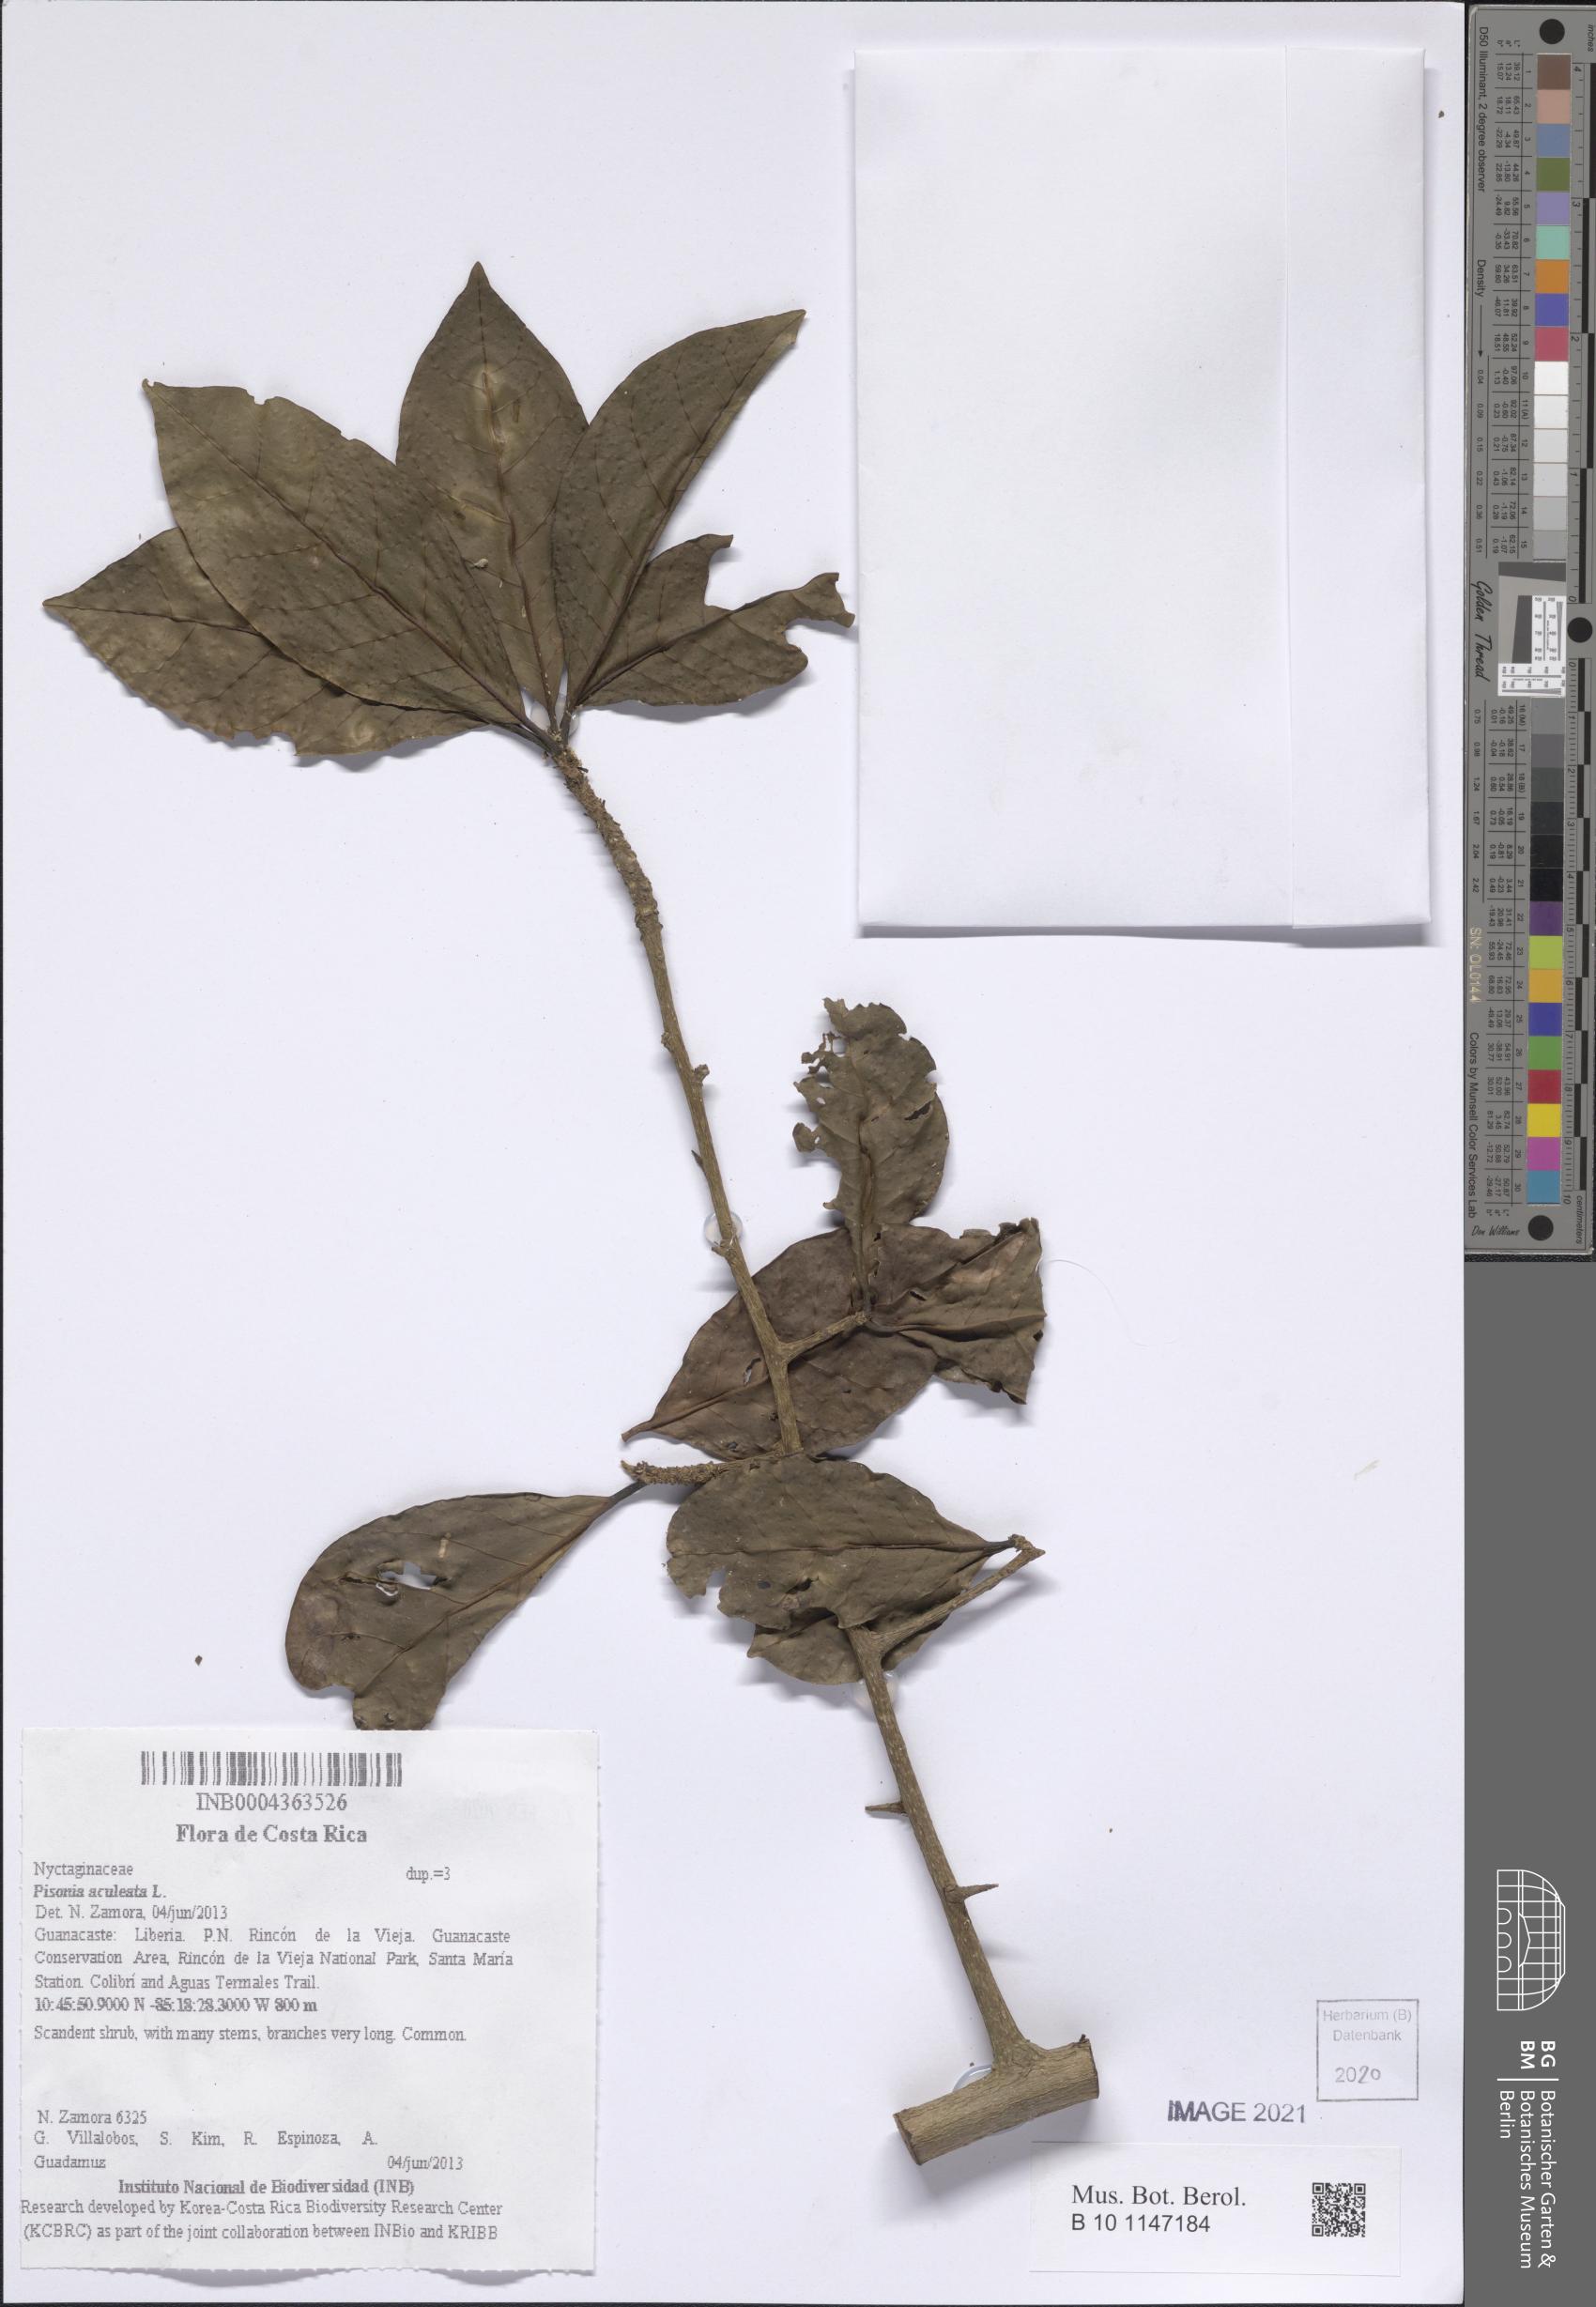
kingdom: Plantae
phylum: Tracheophyta
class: Magnoliopsida
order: Caryophyllales
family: Nyctaginaceae
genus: Pisonia
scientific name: Pisonia aculeata
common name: Cockspur vine
